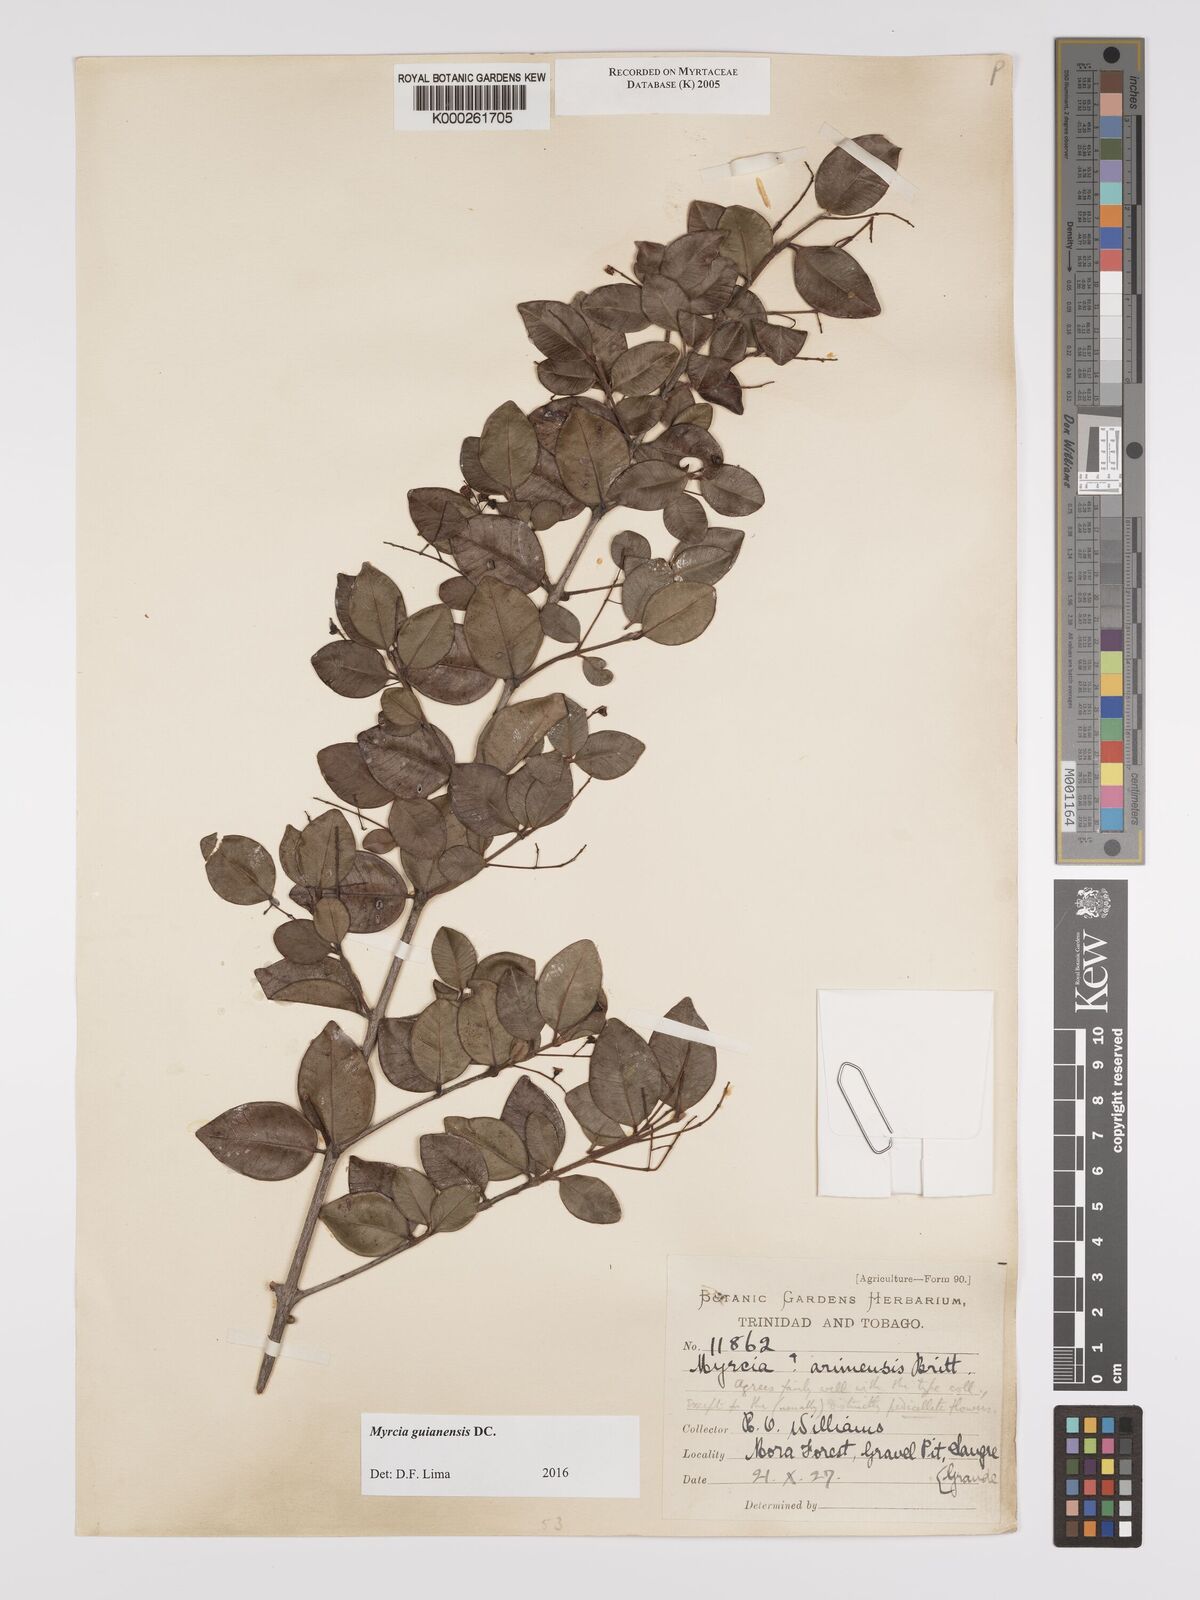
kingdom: Plantae
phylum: Tracheophyta
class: Magnoliopsida
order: Myrtales
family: Myrtaceae
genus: Myrcia
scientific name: Myrcia guianensis
